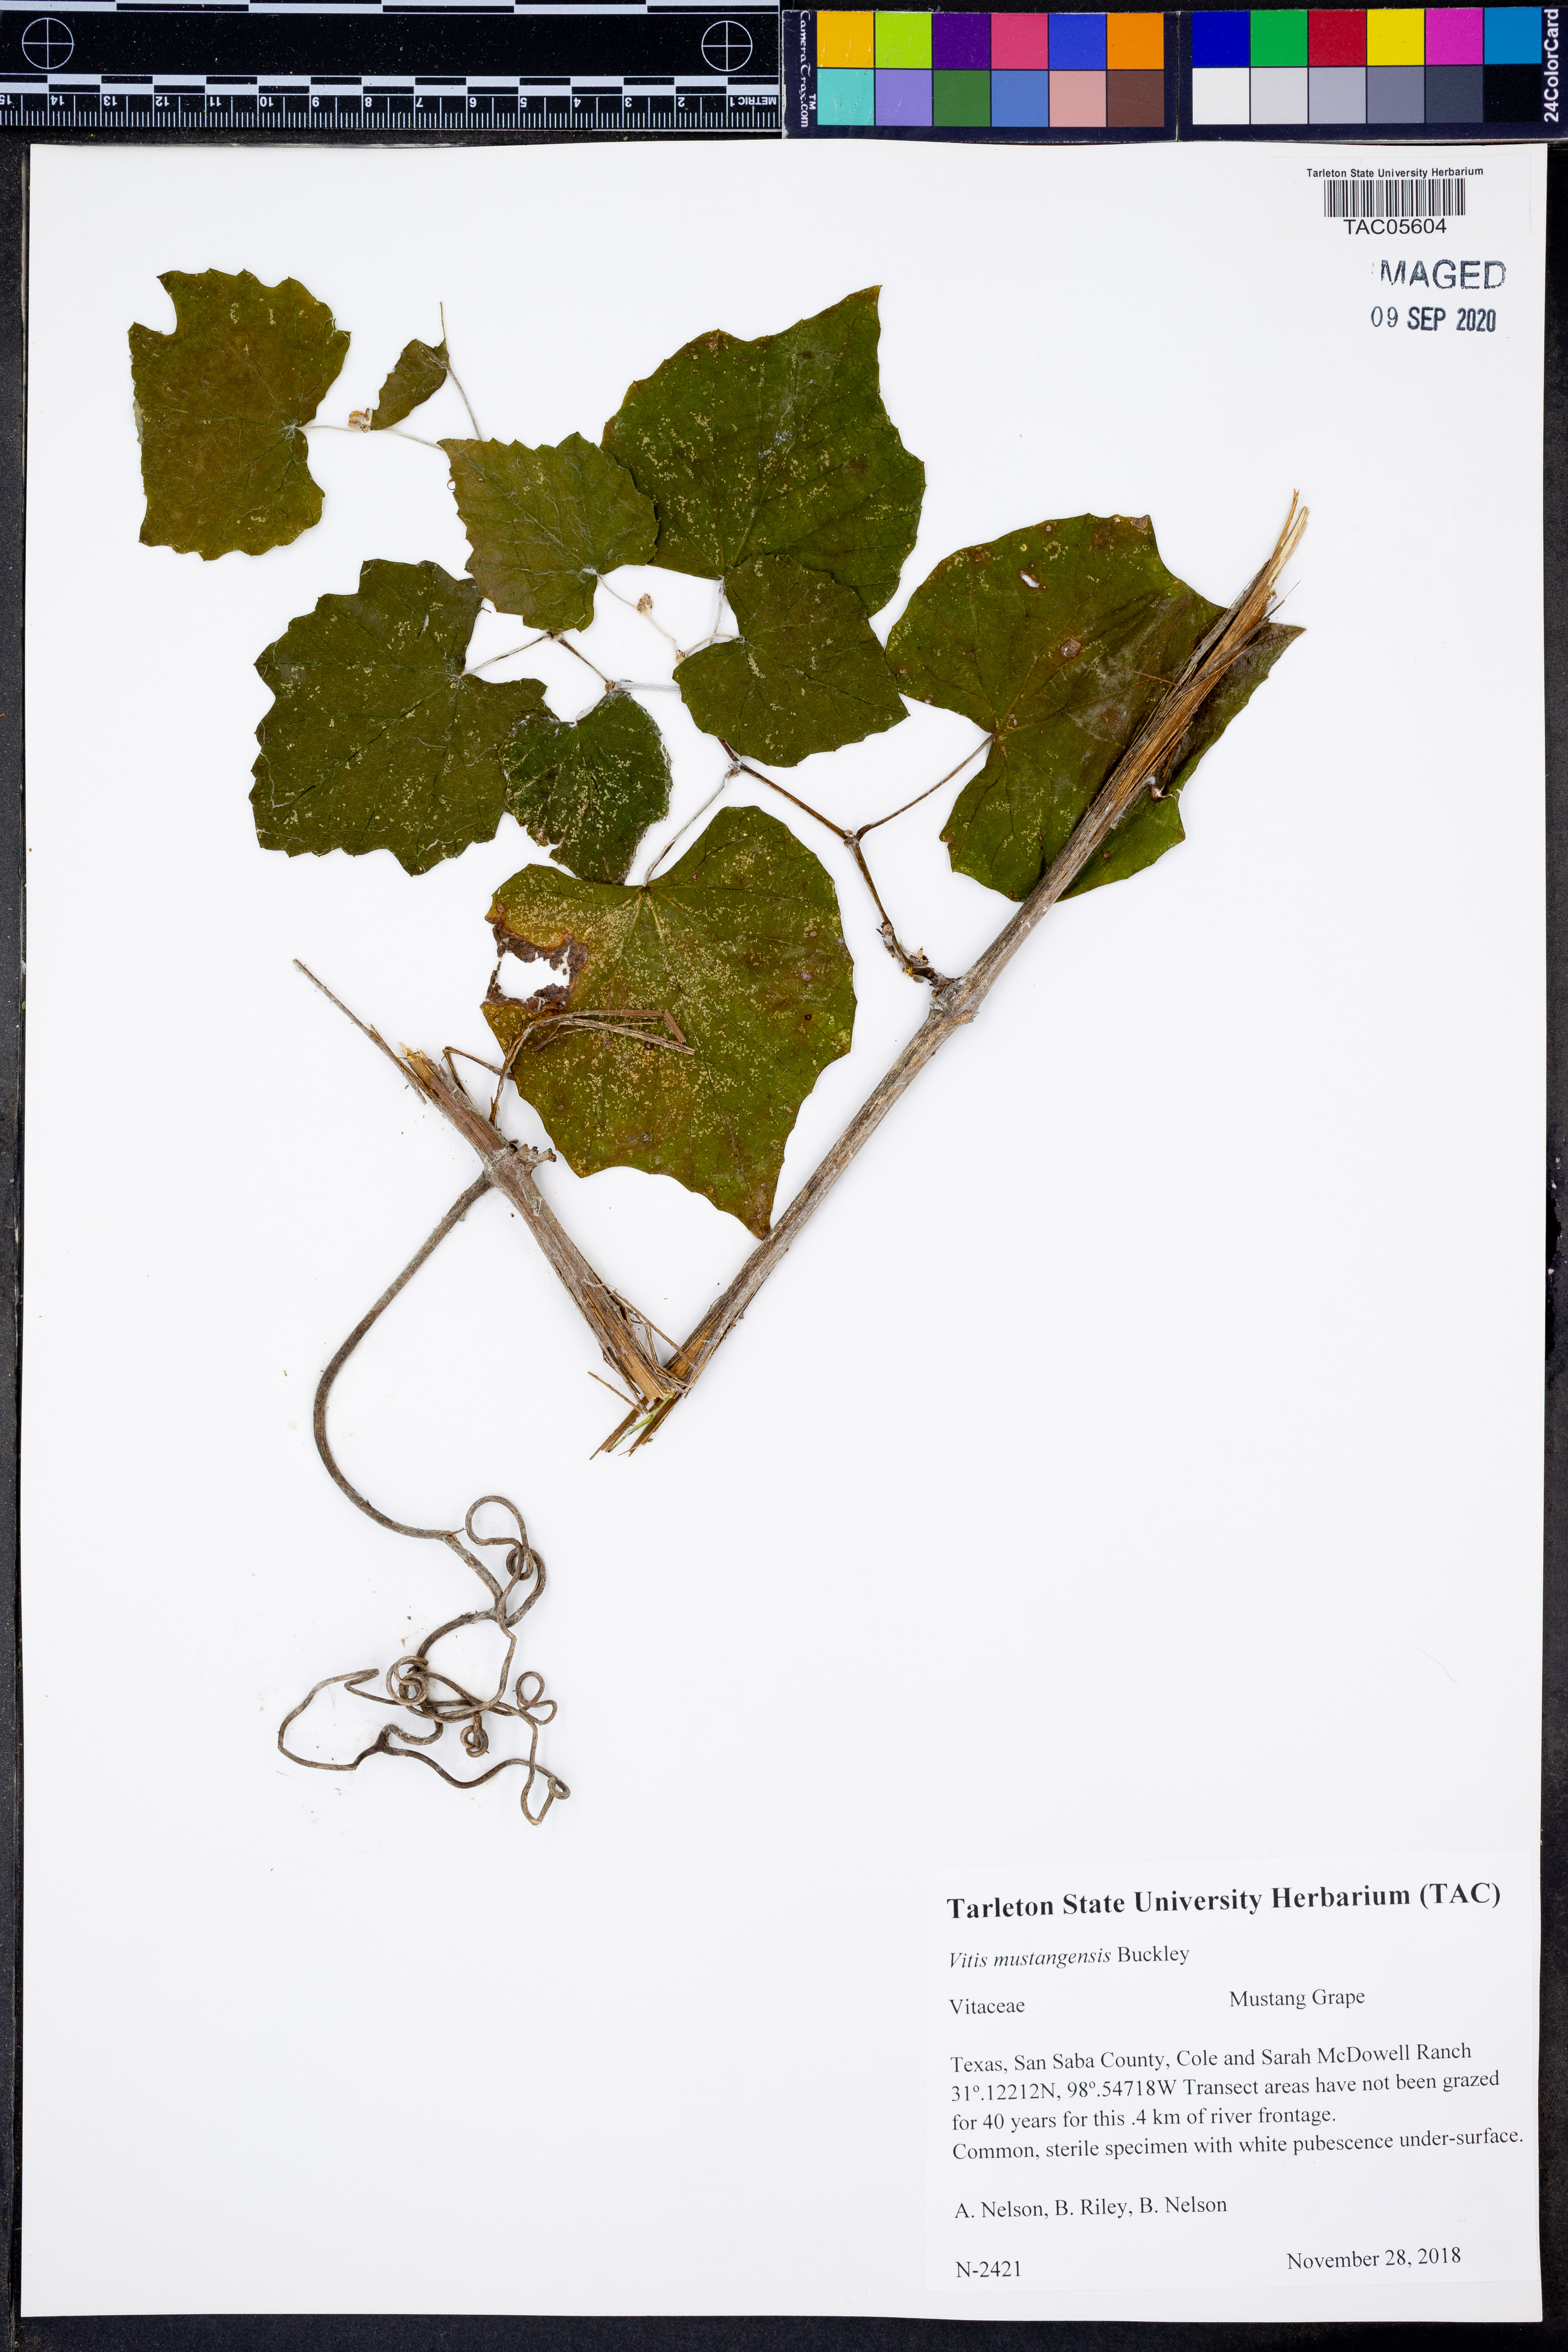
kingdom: Plantae
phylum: Tracheophyta
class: Magnoliopsida
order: Vitales
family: Vitaceae
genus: Vitis
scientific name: Vitis mustangensis
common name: Mustang grape
